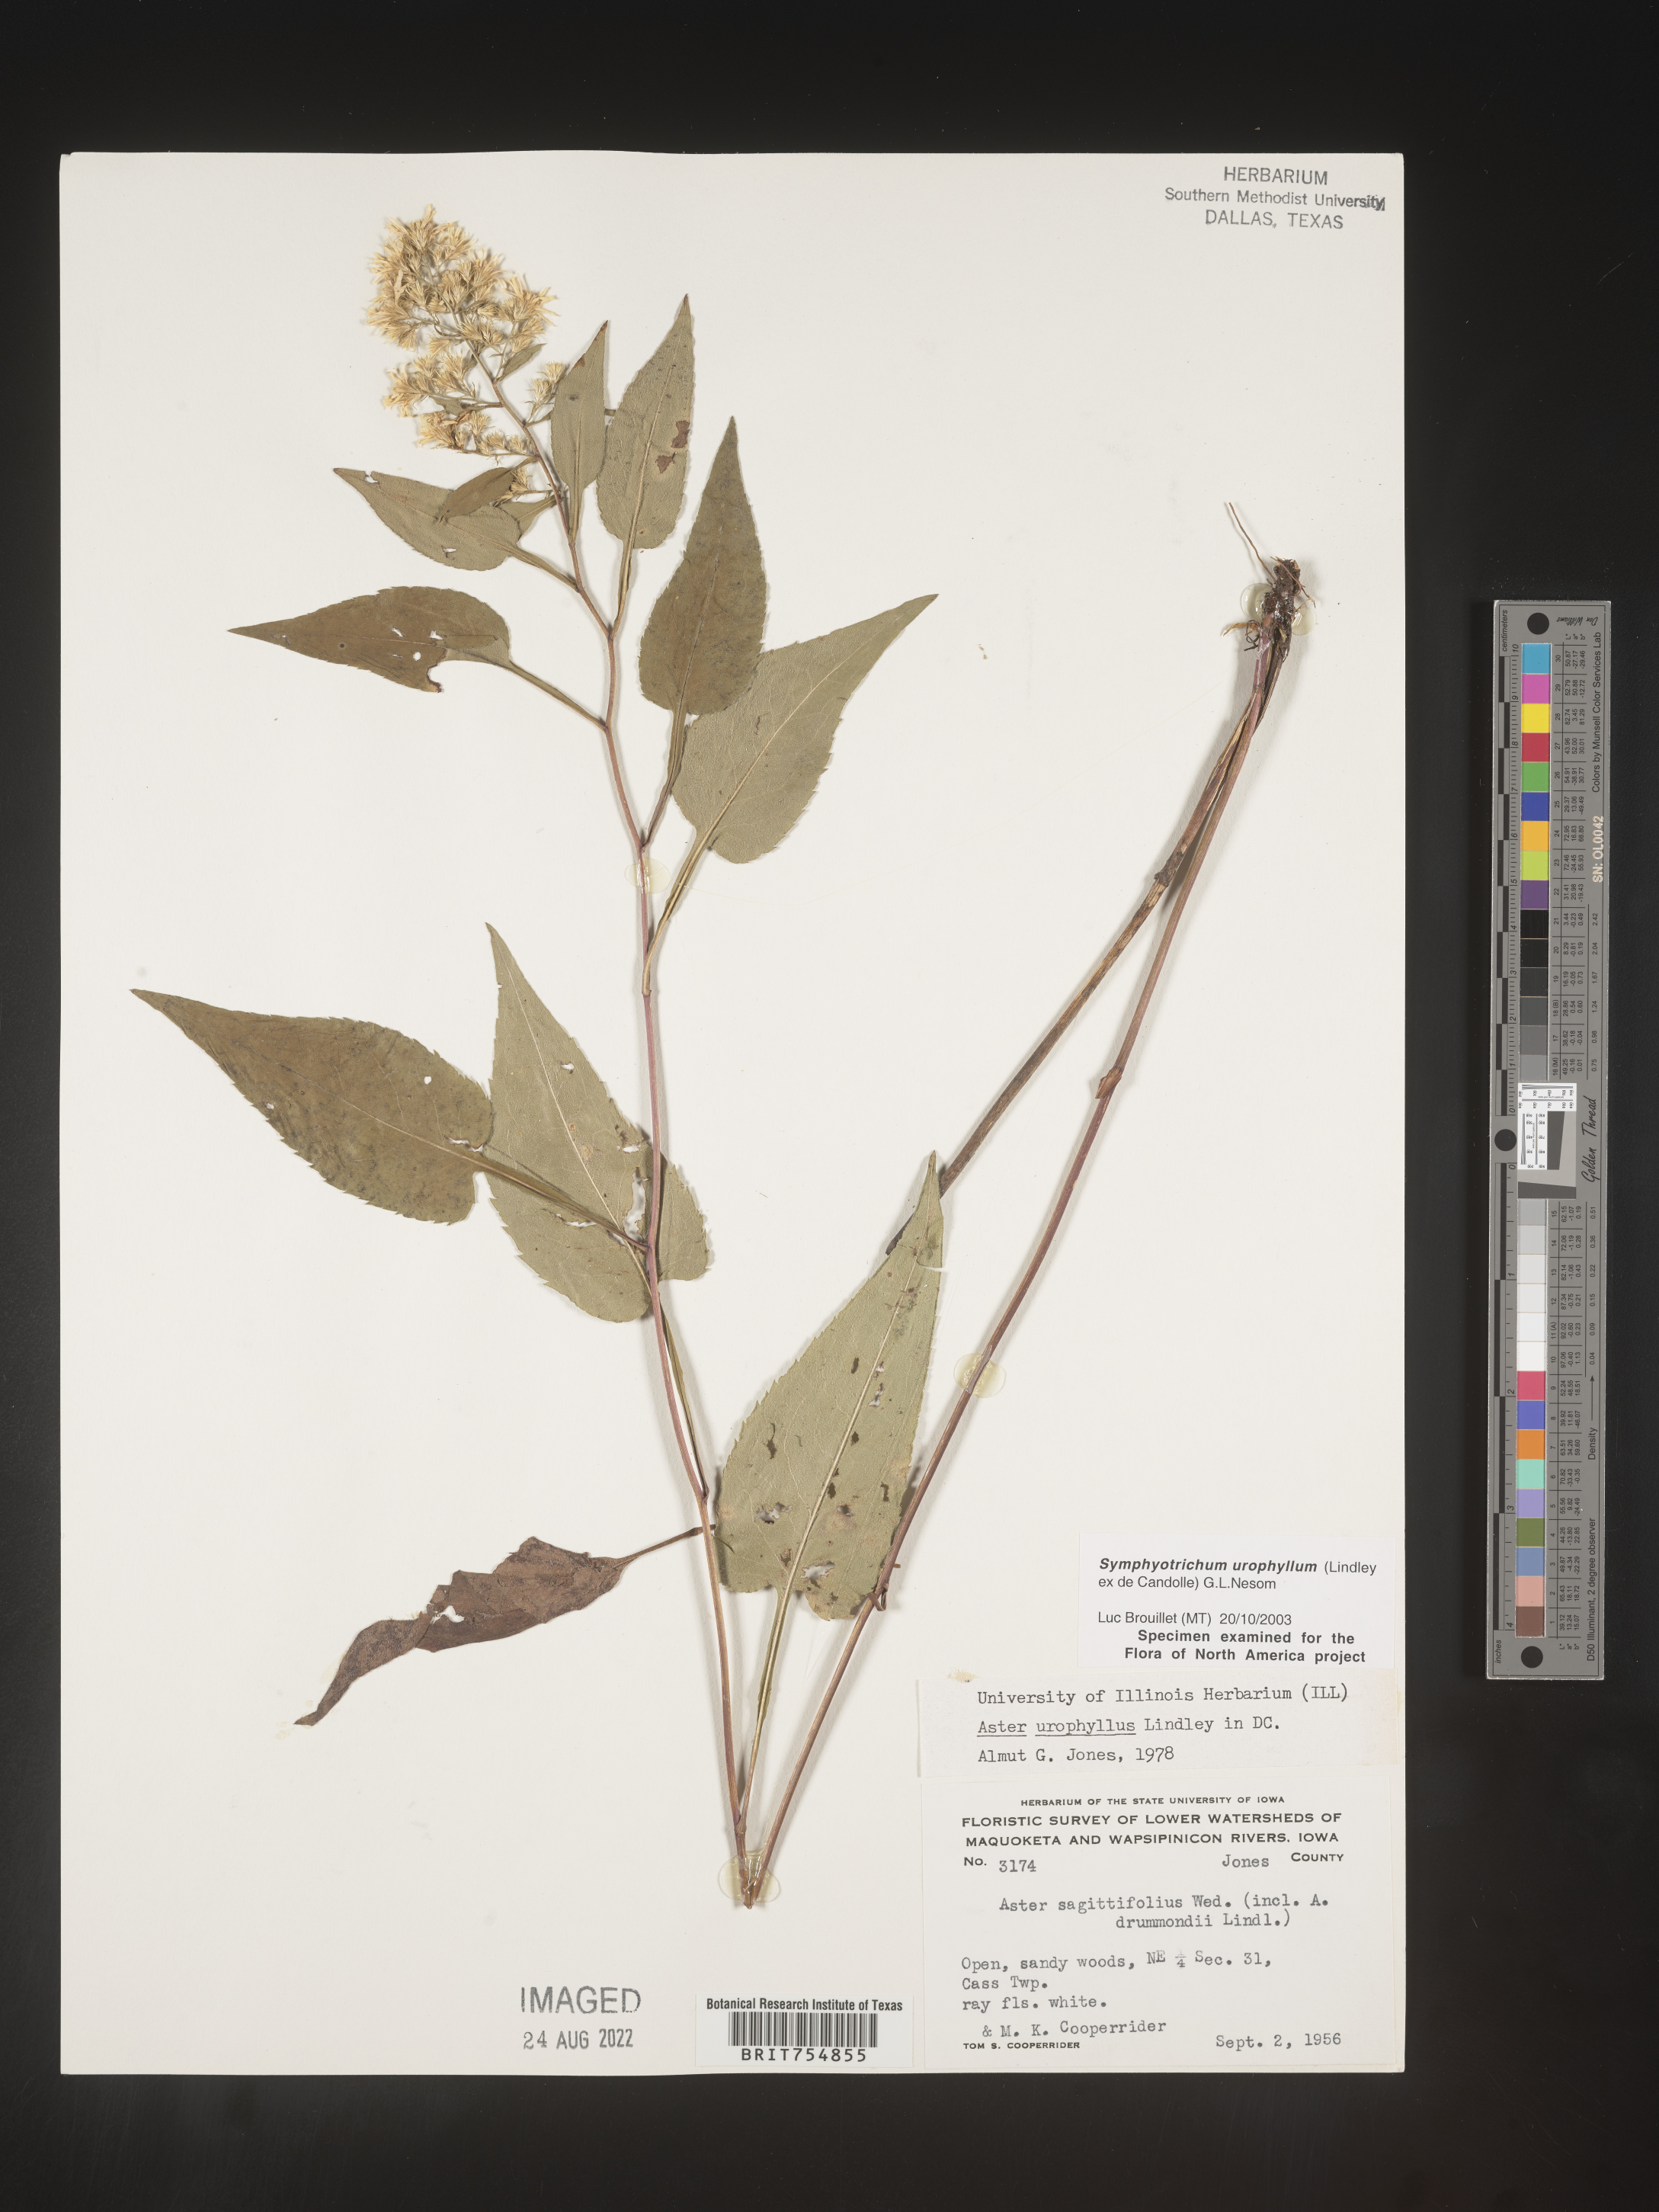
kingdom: Plantae
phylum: Tracheophyta
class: Magnoliopsida
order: Asterales
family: Asteraceae
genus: Symphyotrichum
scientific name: Symphyotrichum urophyllum
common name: Arrow-leaved aster
